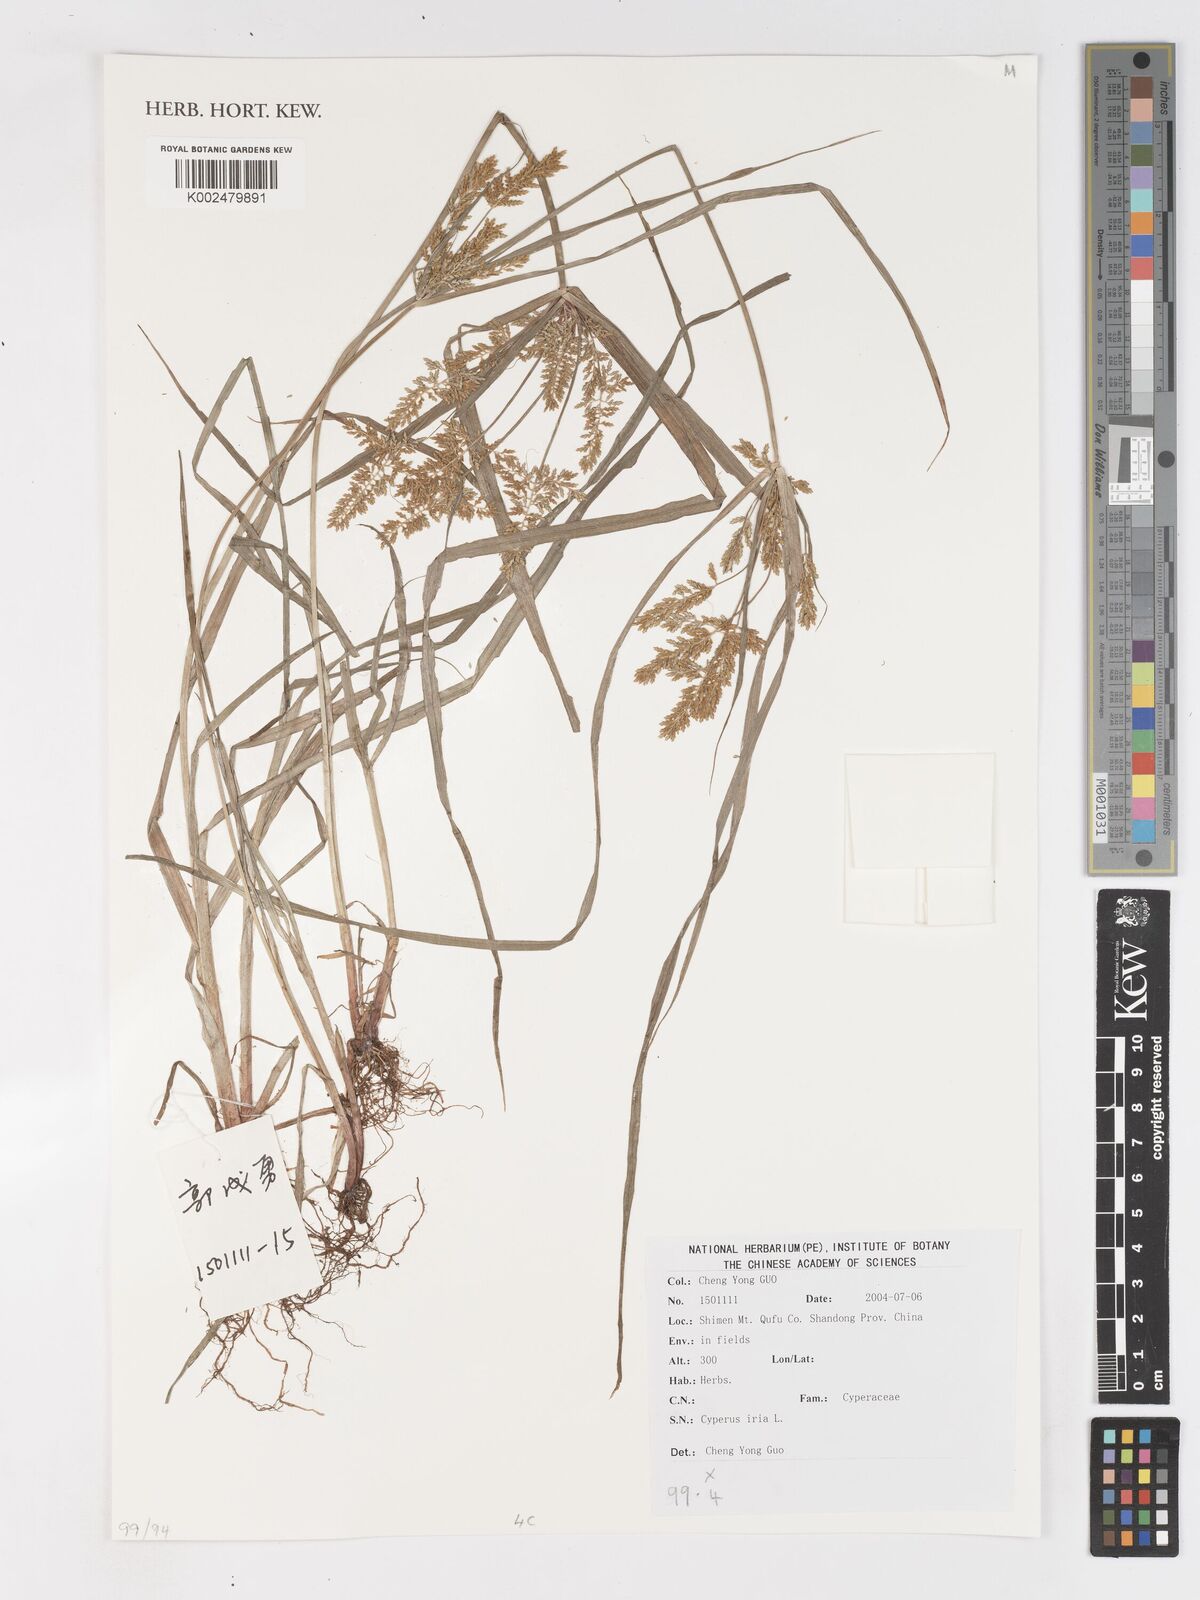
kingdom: Plantae
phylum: Tracheophyta
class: Liliopsida
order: Poales
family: Cyperaceae
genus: Cyperus
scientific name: Cyperus iria
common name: Ricefield flatsedge
